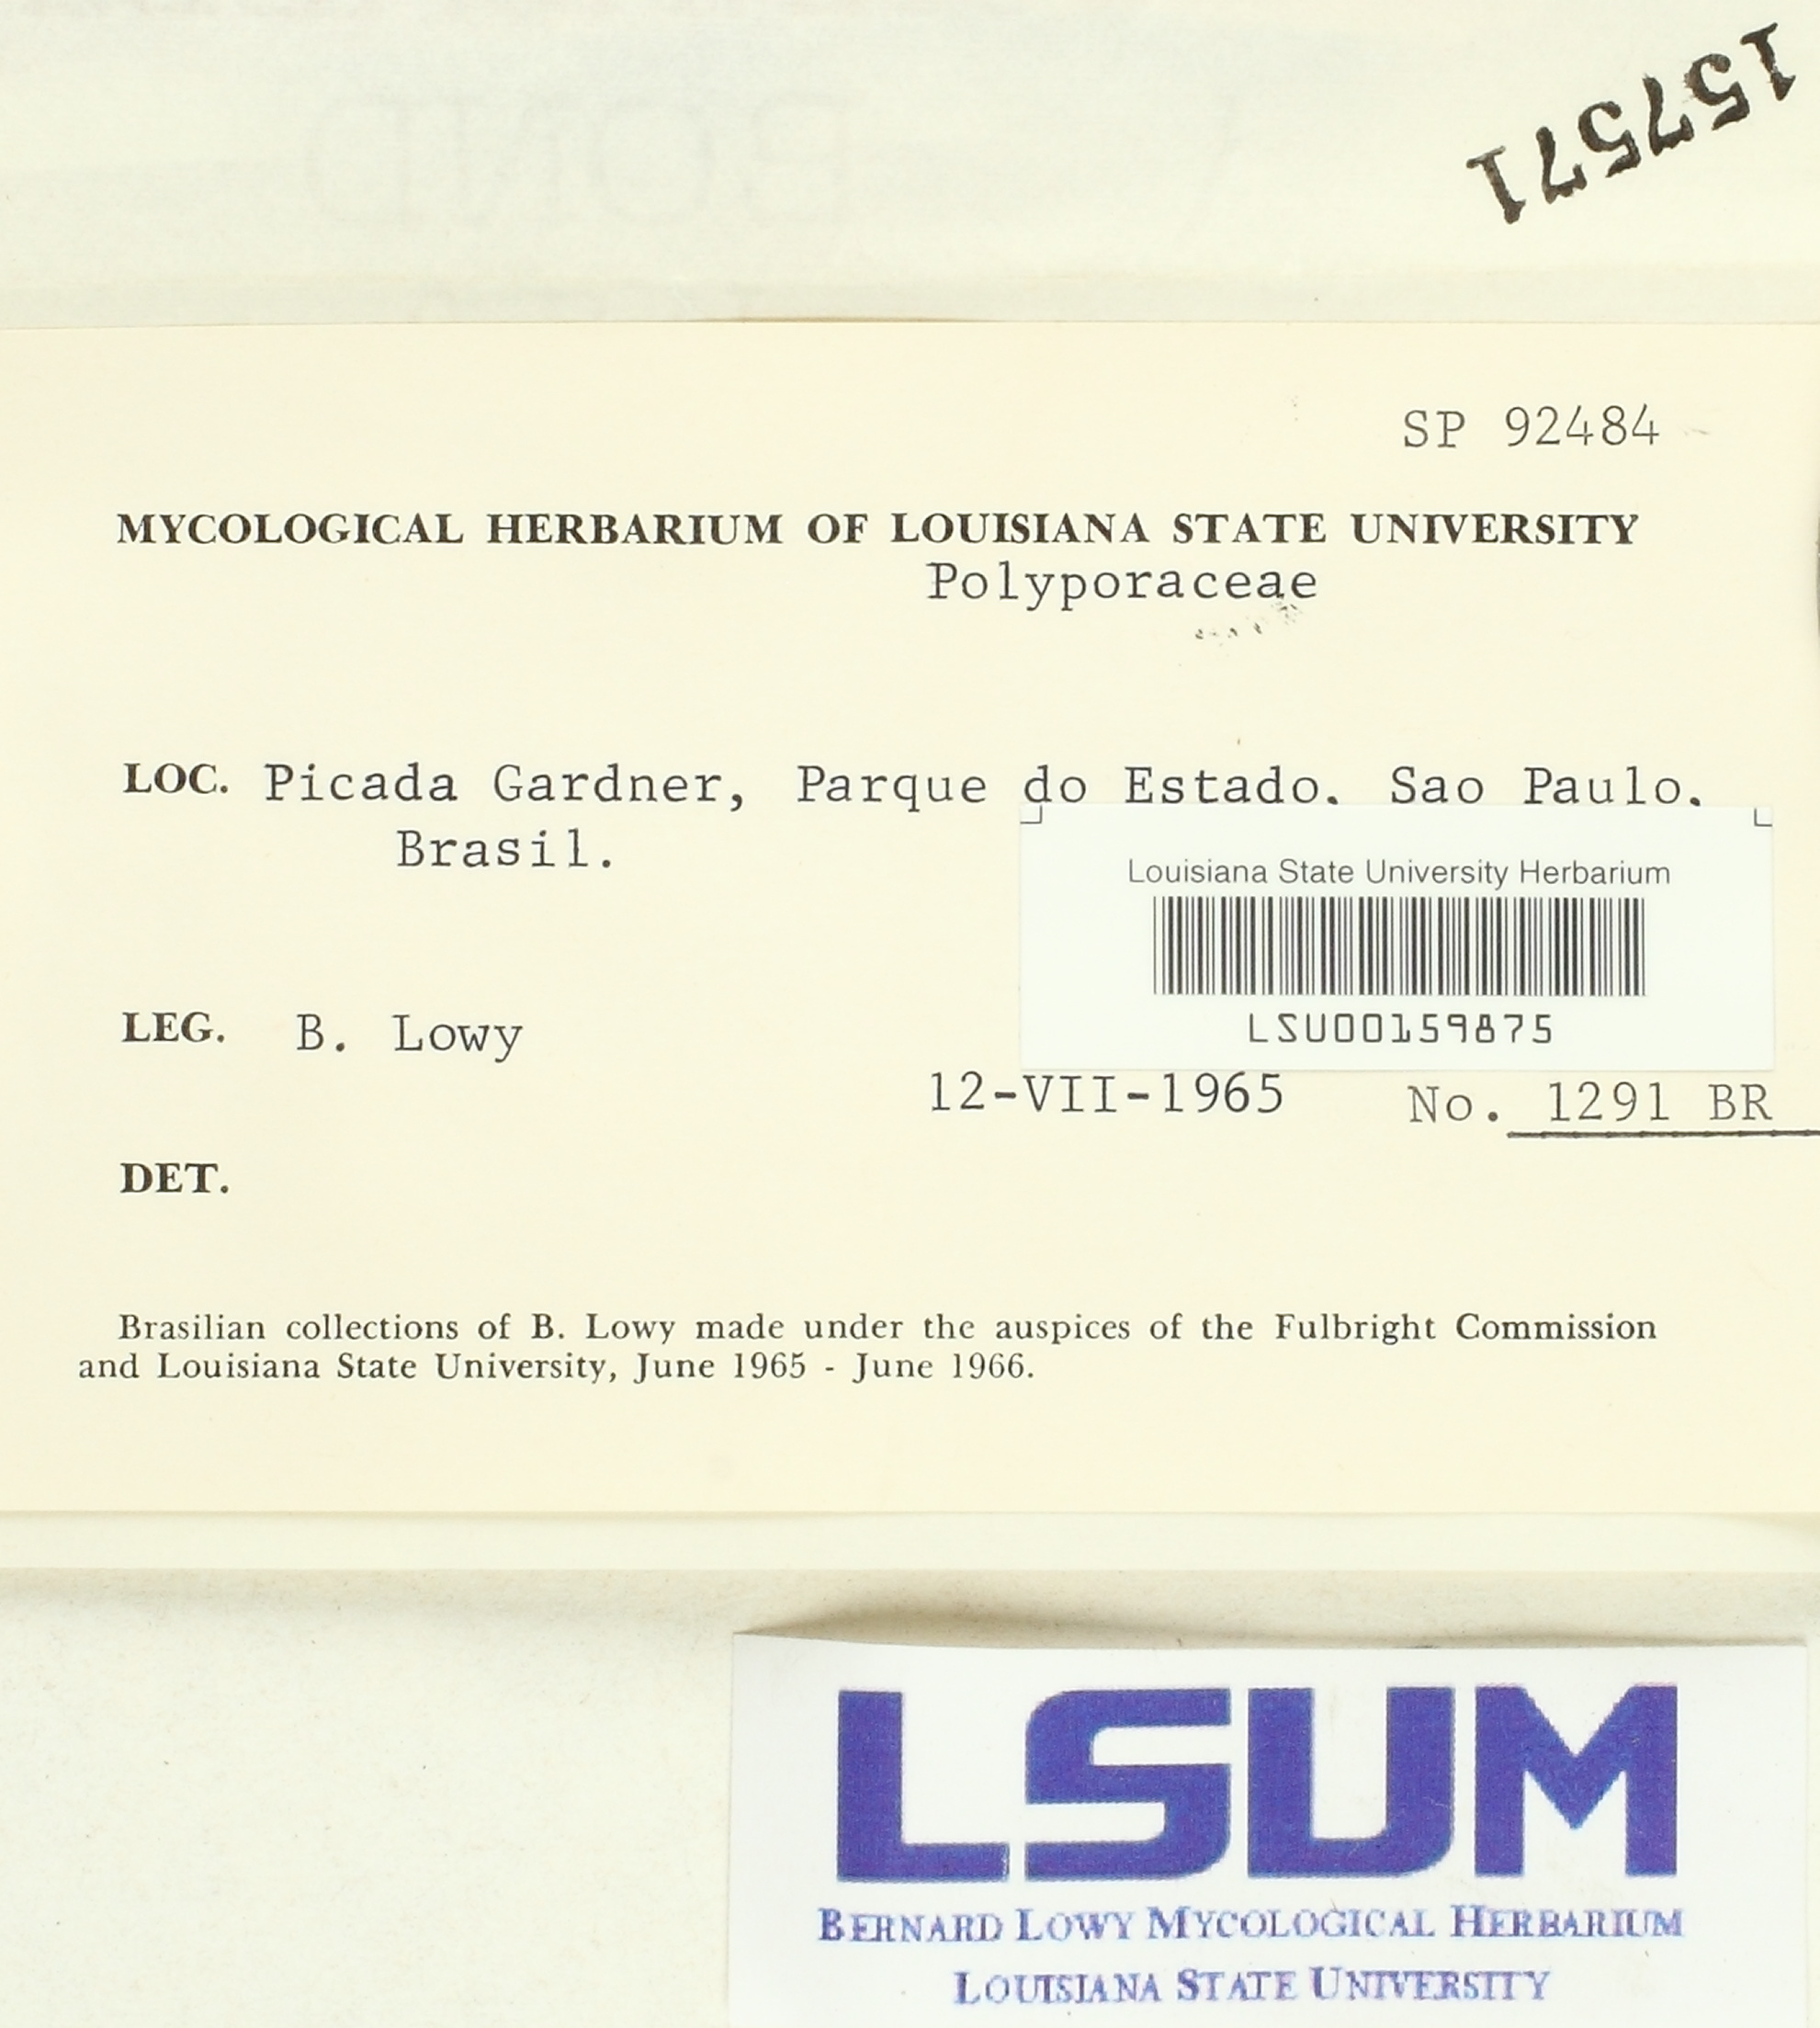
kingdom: Fungi
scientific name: Fungi
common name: Fungi
